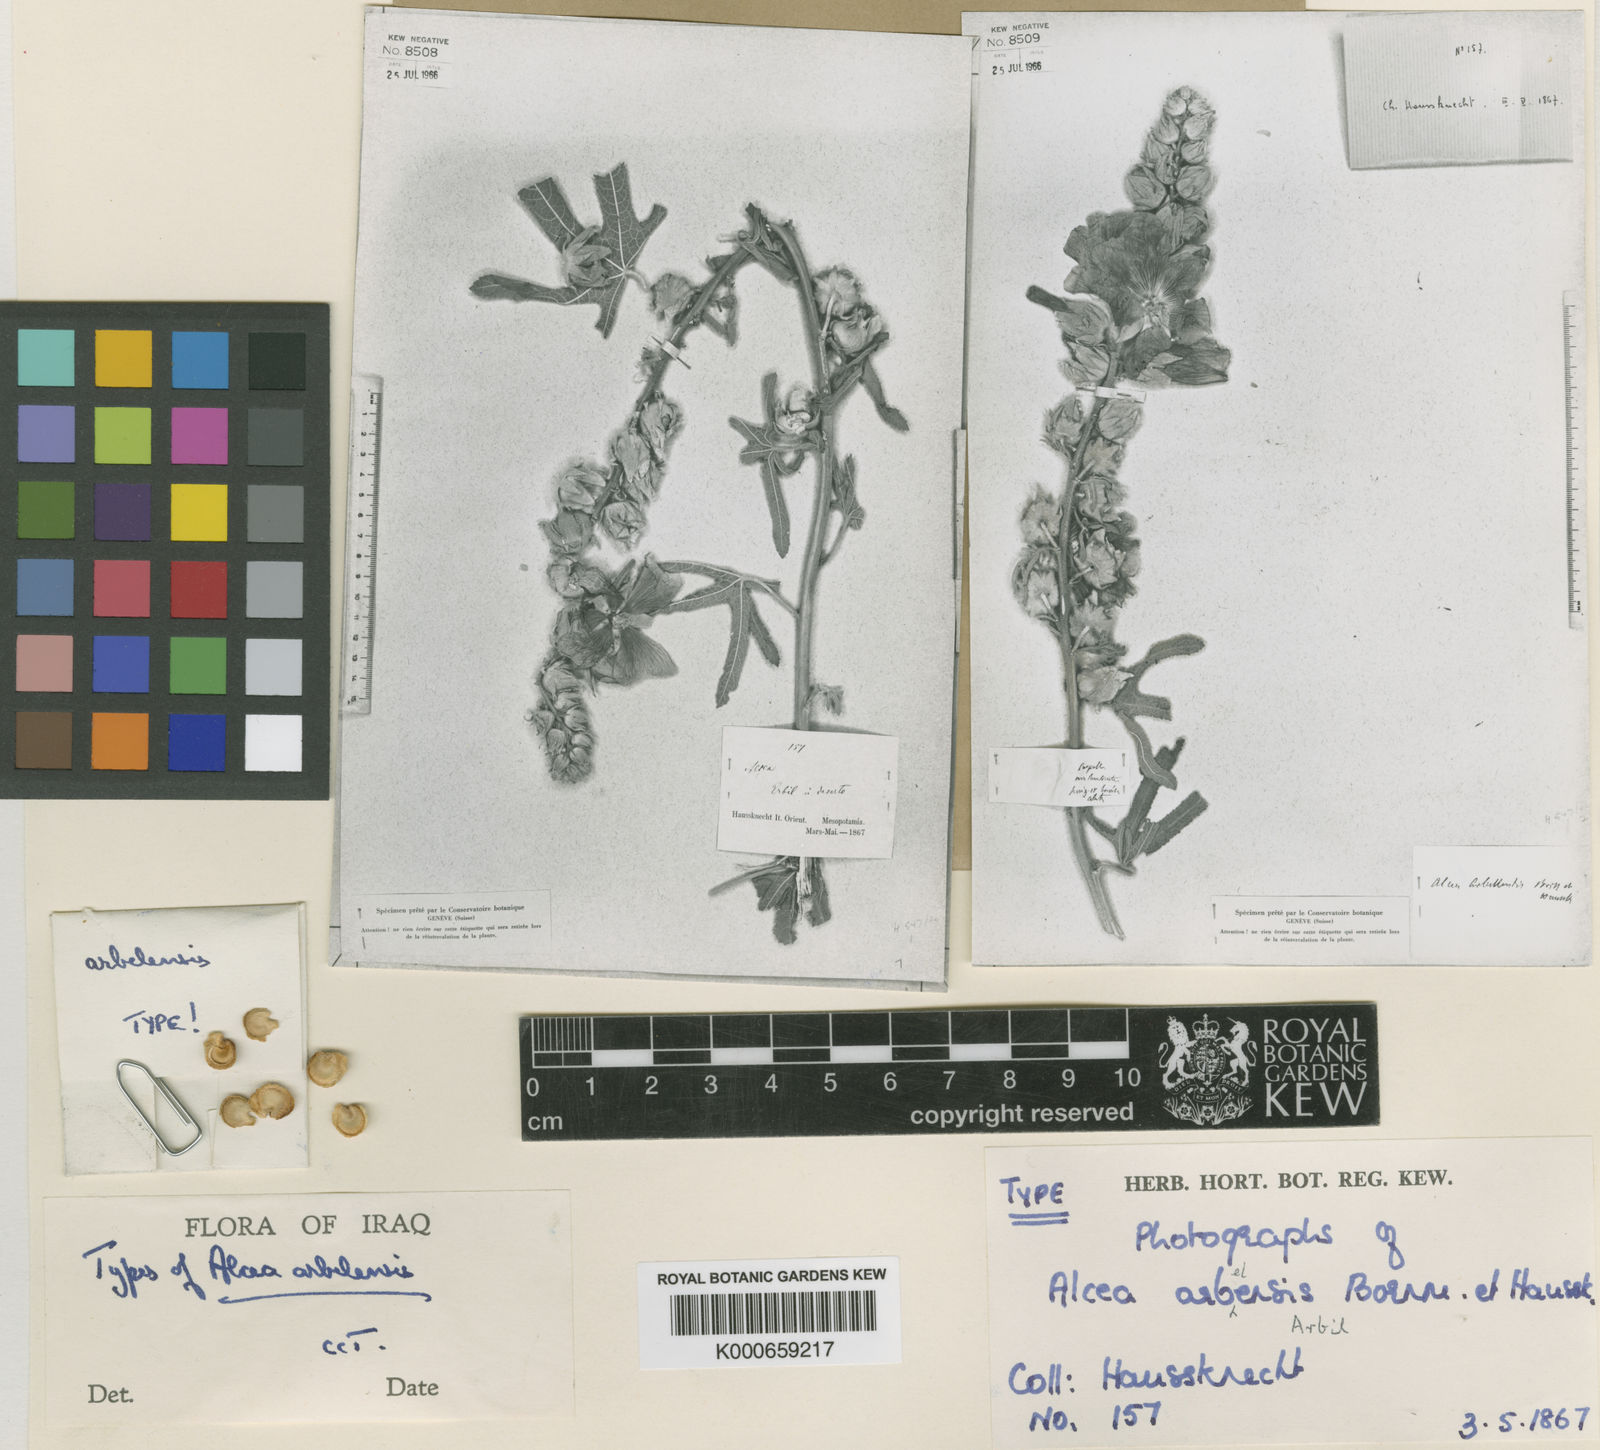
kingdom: Plantae
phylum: Tracheophyta
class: Magnoliopsida
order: Malvales
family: Malvaceae
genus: Alcea
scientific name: Alcea arbelensis
